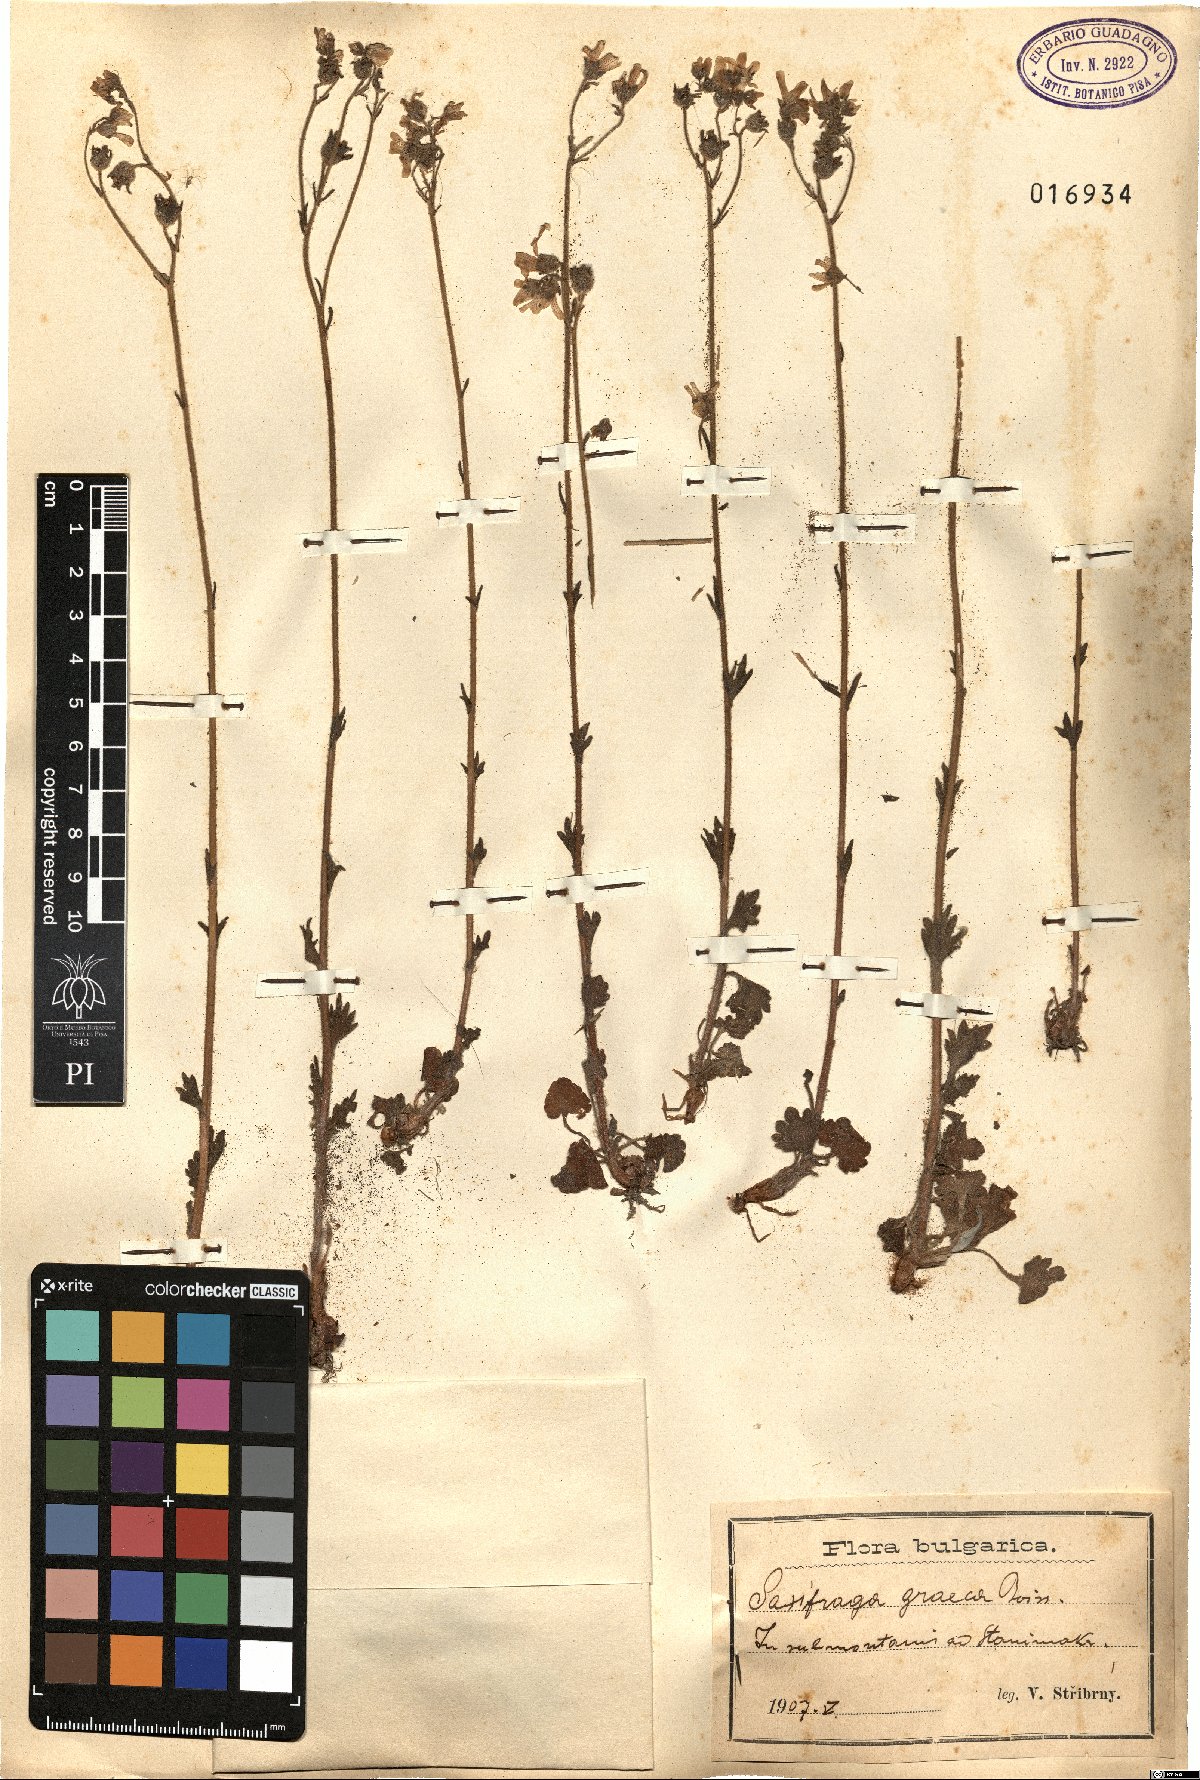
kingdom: Plantae
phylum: Tracheophyta
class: Magnoliopsida
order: Saxifragales
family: Saxifragaceae
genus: Saxifraga
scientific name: Saxifraga carpetana
